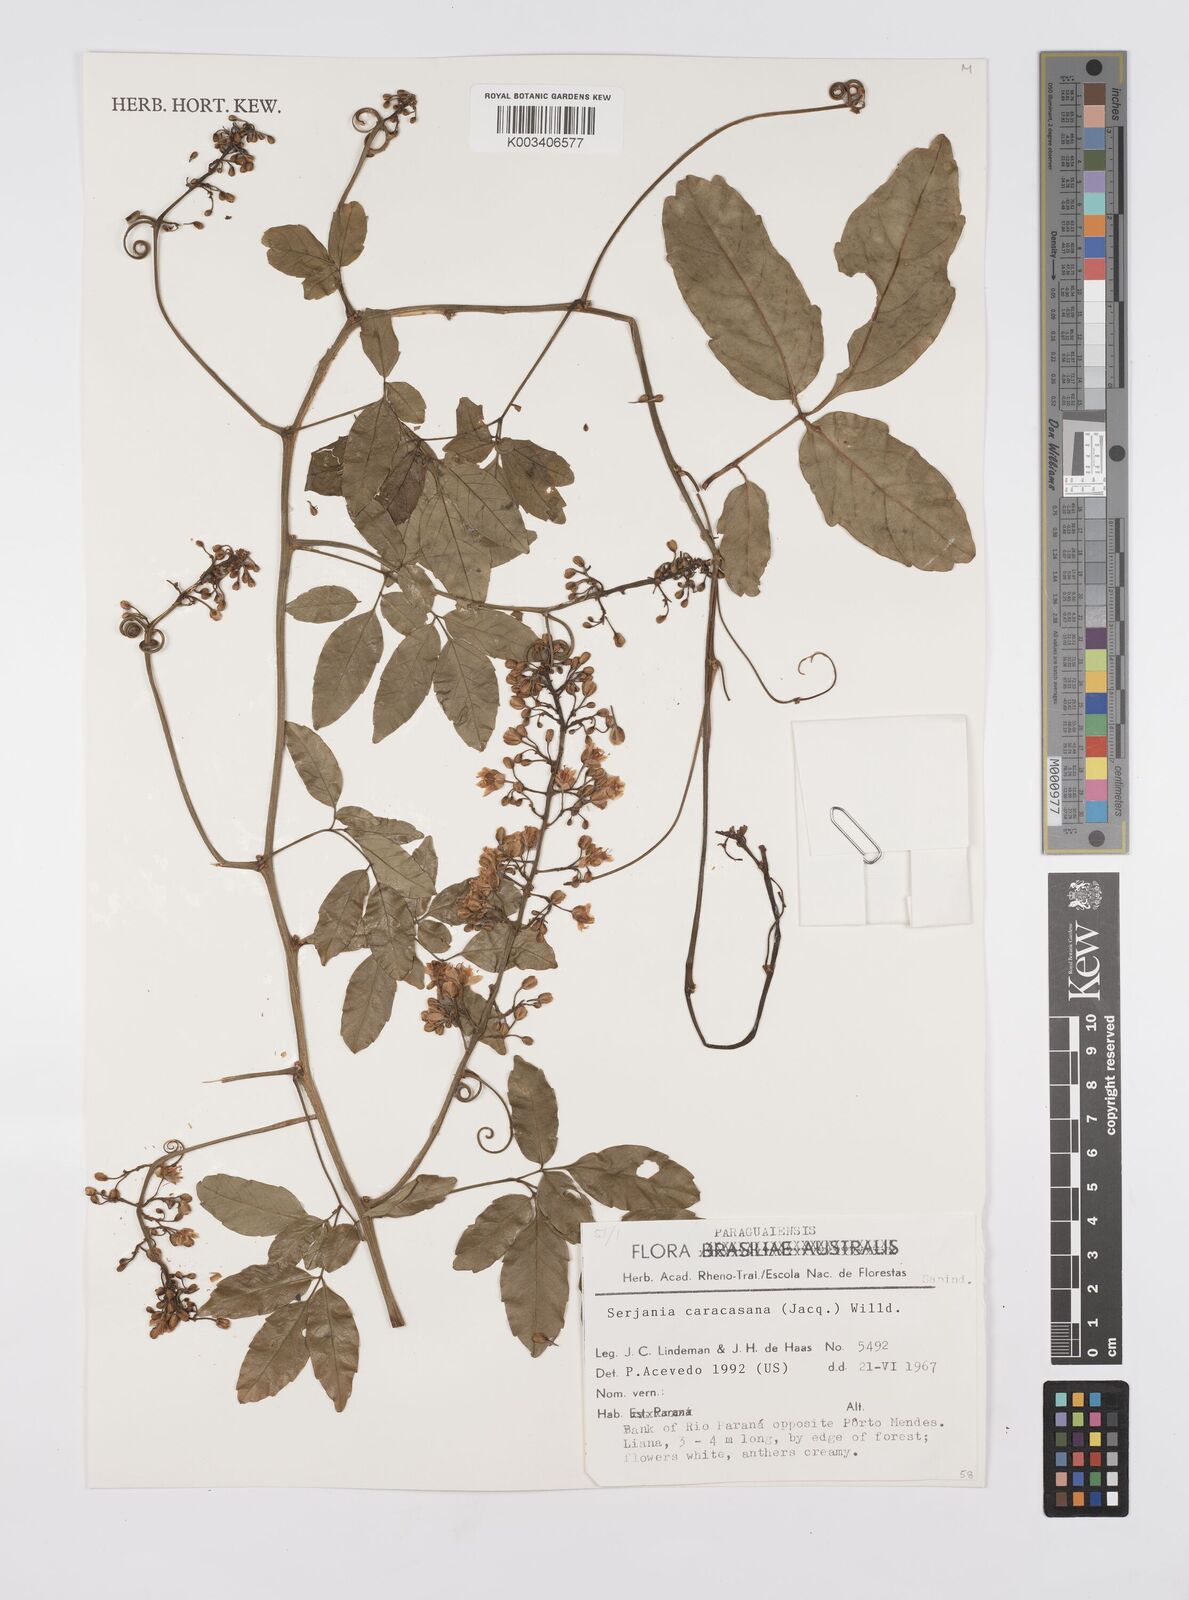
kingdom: Plantae
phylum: Tracheophyta
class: Magnoliopsida
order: Sapindales
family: Sapindaceae
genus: Serjania
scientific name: Serjania caracasana
